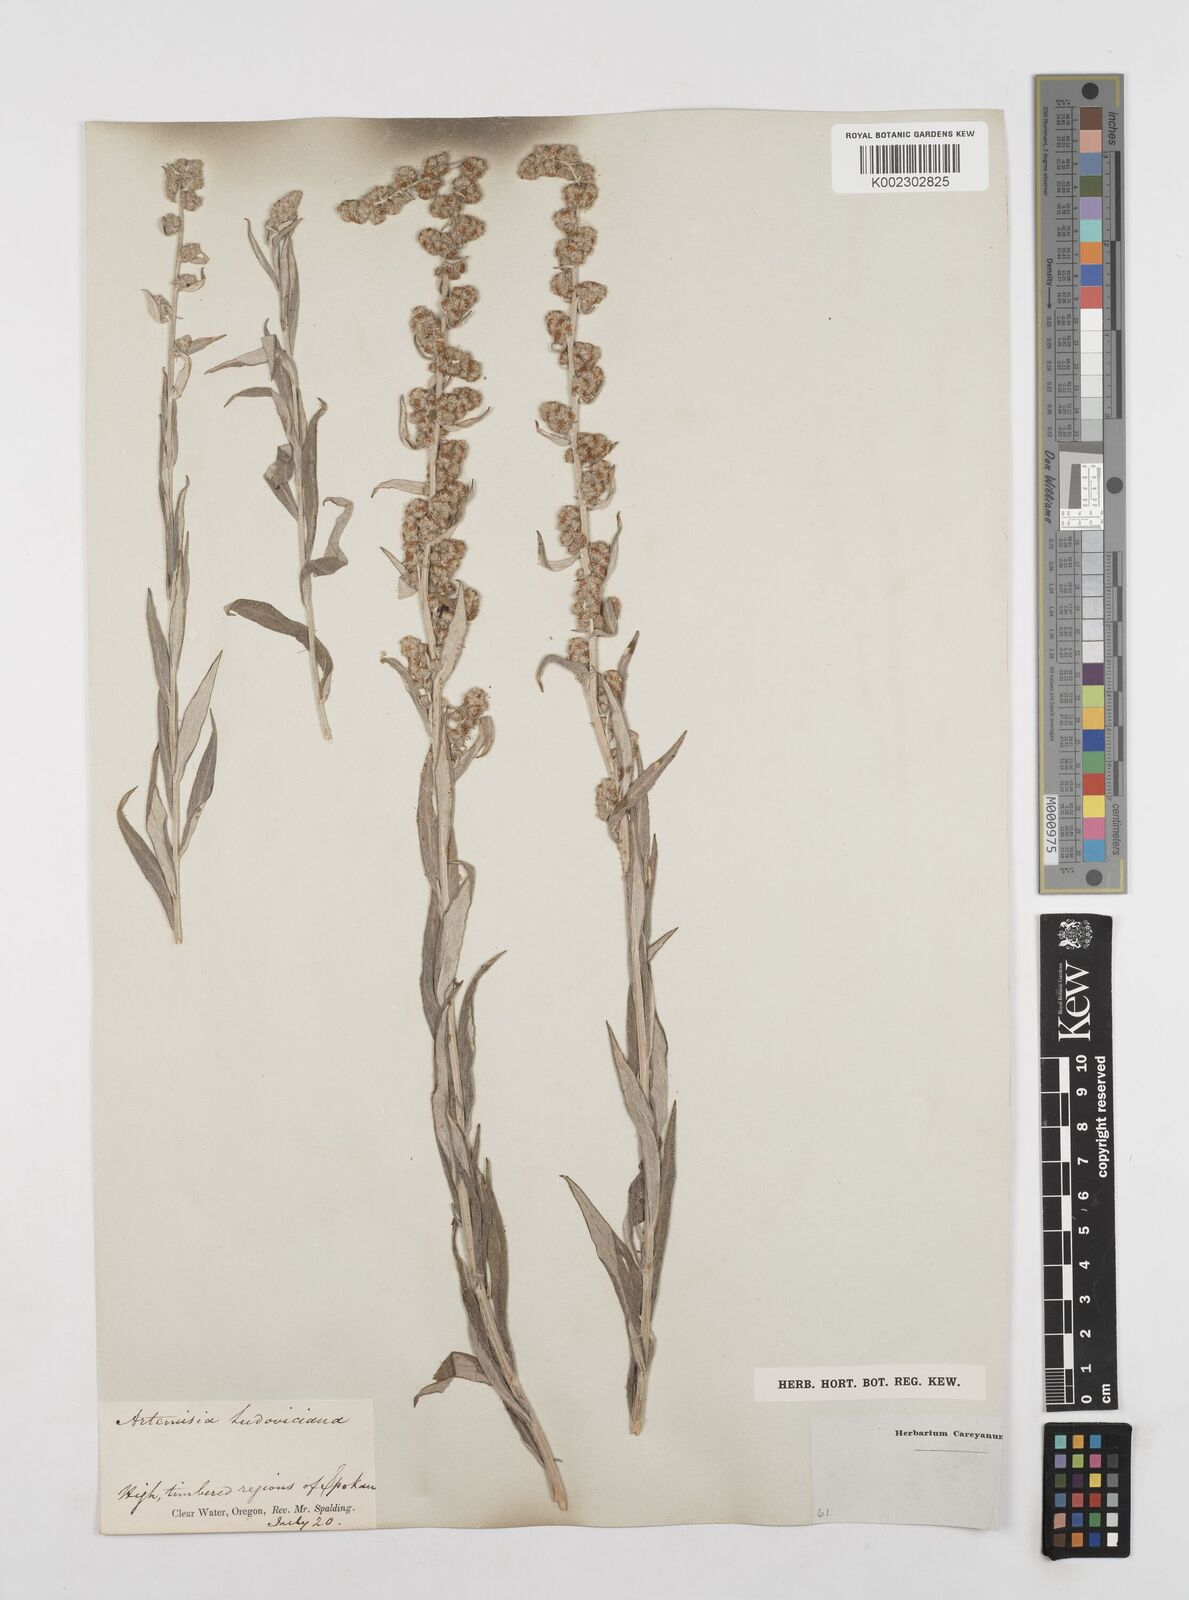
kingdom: Plantae
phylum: Tracheophyta
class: Magnoliopsida
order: Asterales
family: Asteraceae
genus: Artemisia
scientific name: Artemisia ludoviciana
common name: Western mugwort
